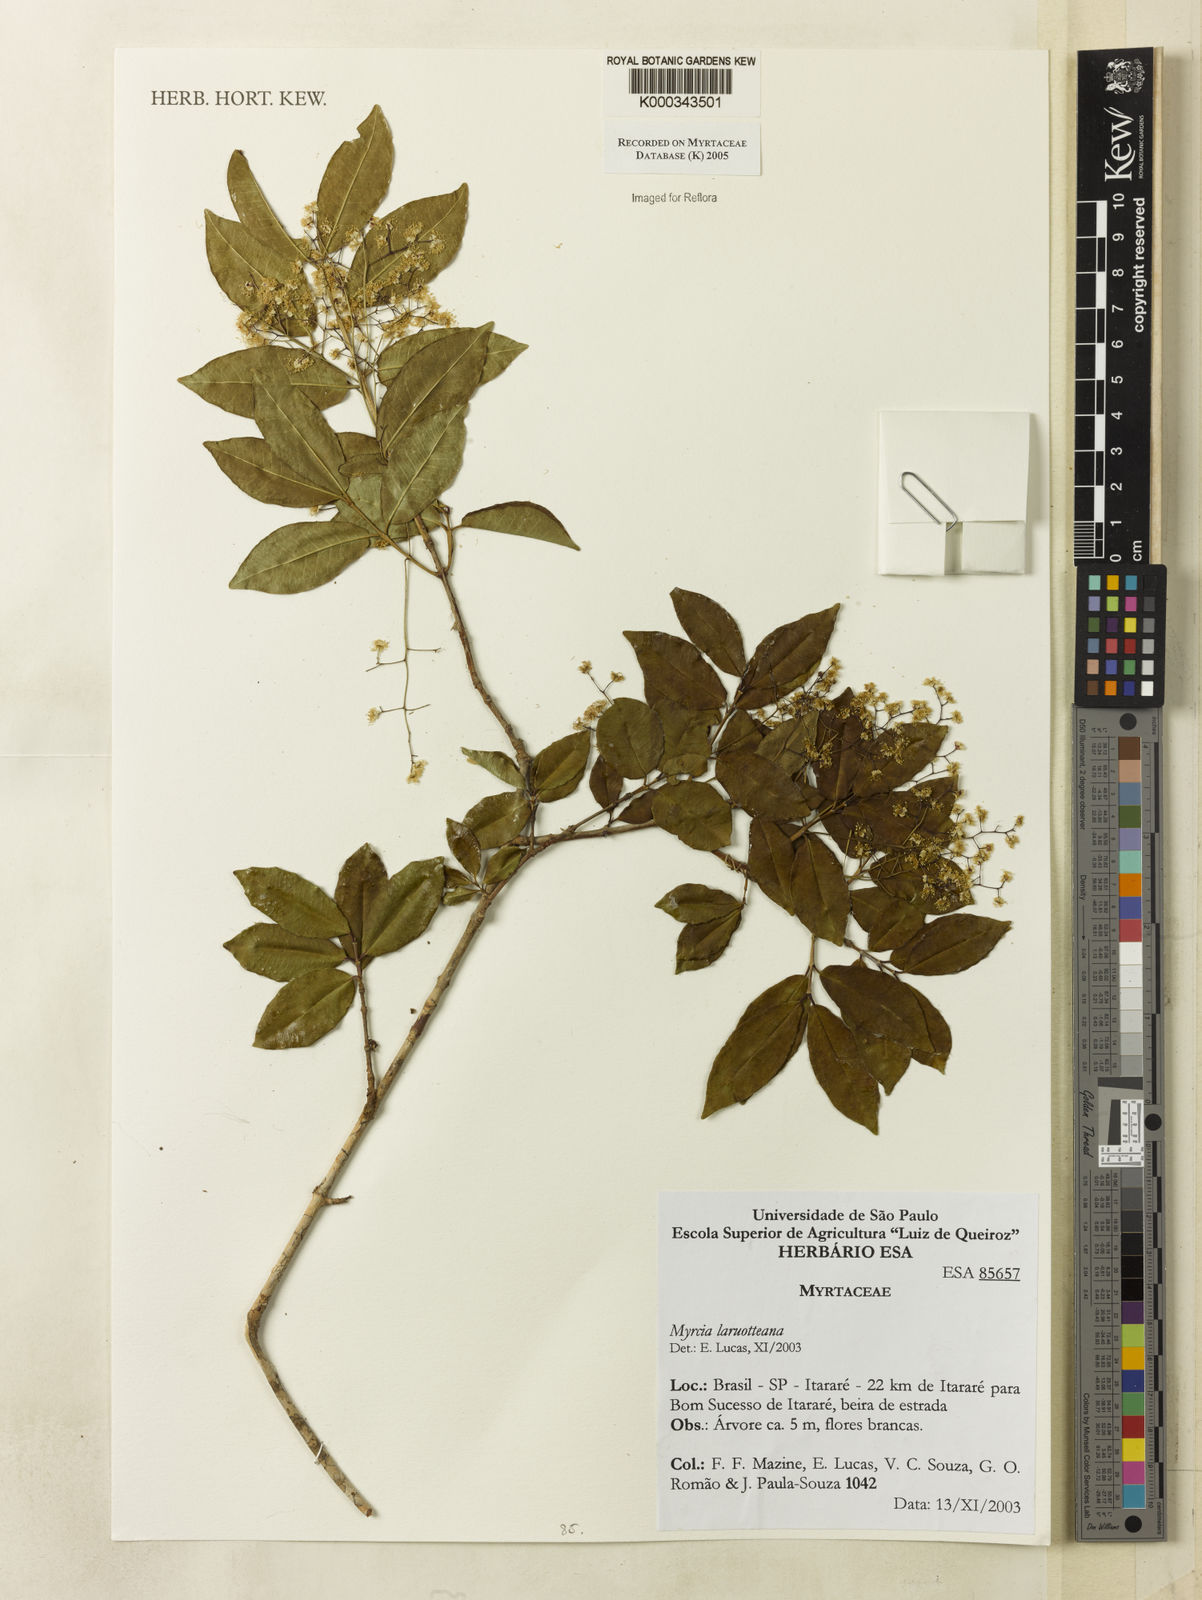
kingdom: Plantae
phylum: Tracheophyta
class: Magnoliopsida
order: Myrtales
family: Myrtaceae
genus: Myrcia
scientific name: Myrcia laruotteana
